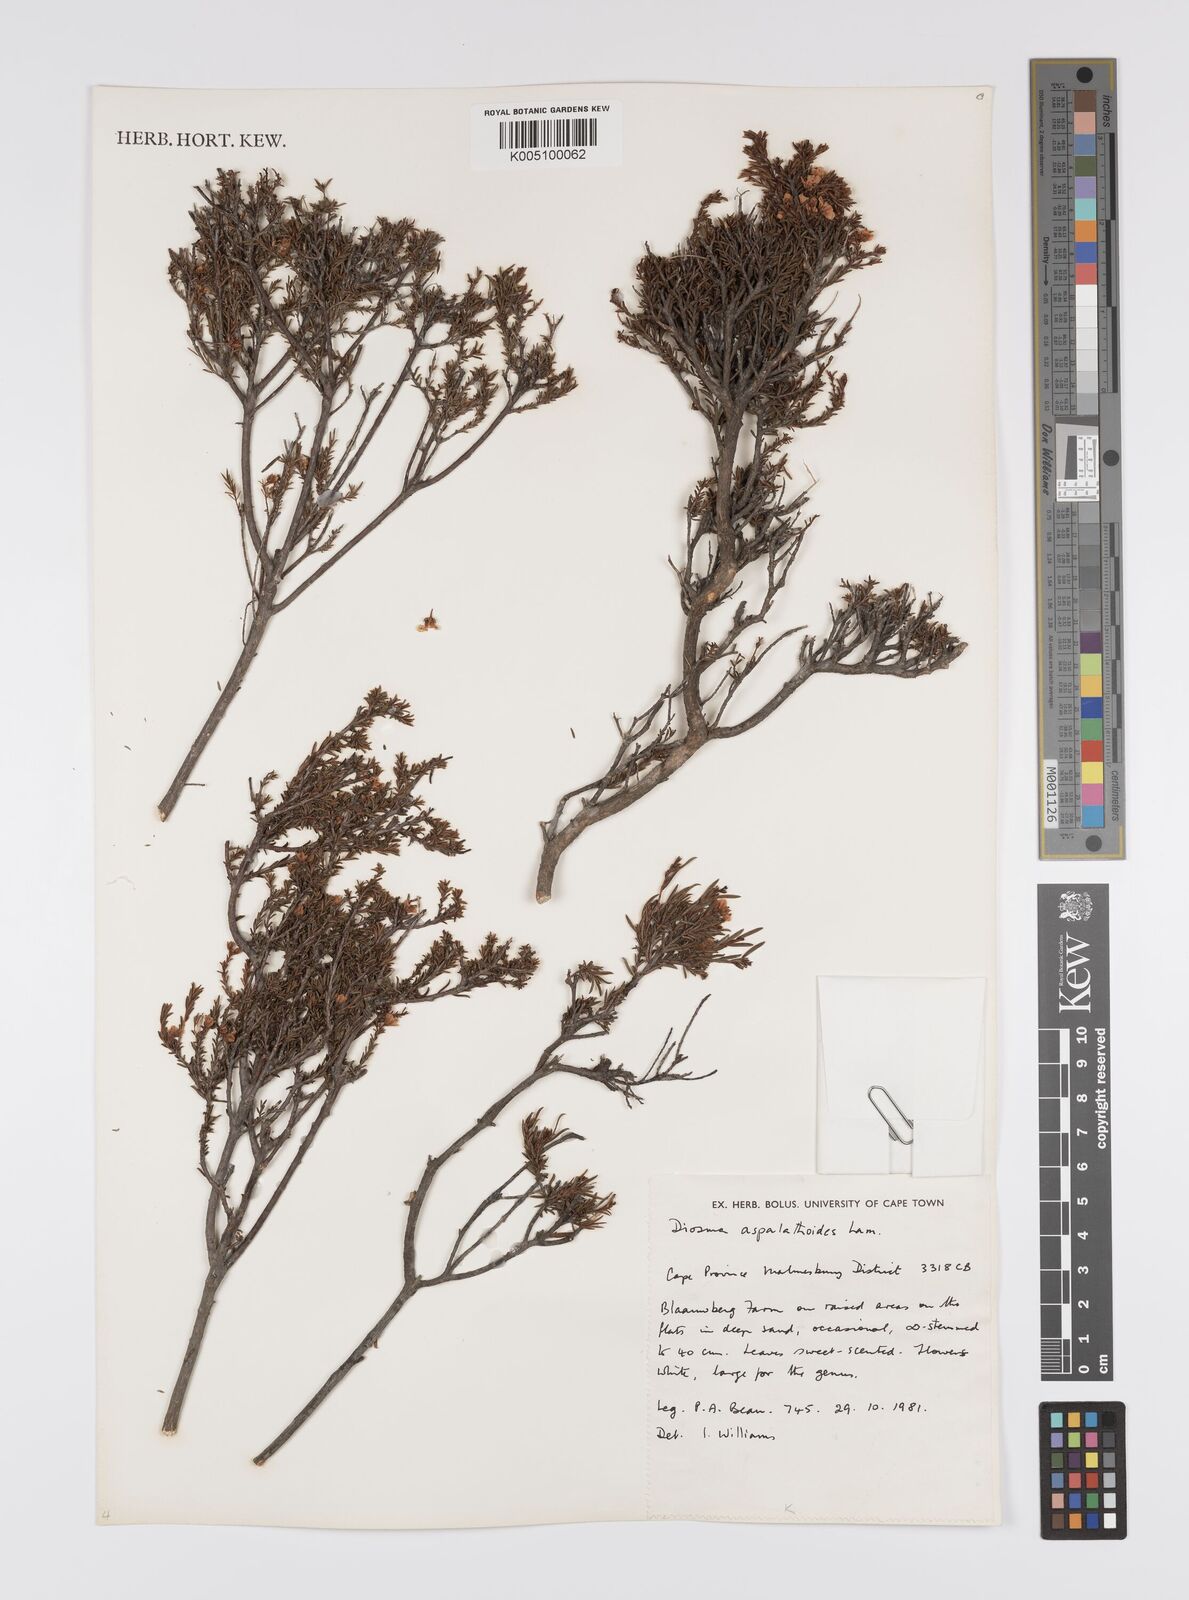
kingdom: Plantae
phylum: Tracheophyta
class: Magnoliopsida
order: Sapindales
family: Rutaceae
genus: Diosma
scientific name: Diosma aspalathoides
